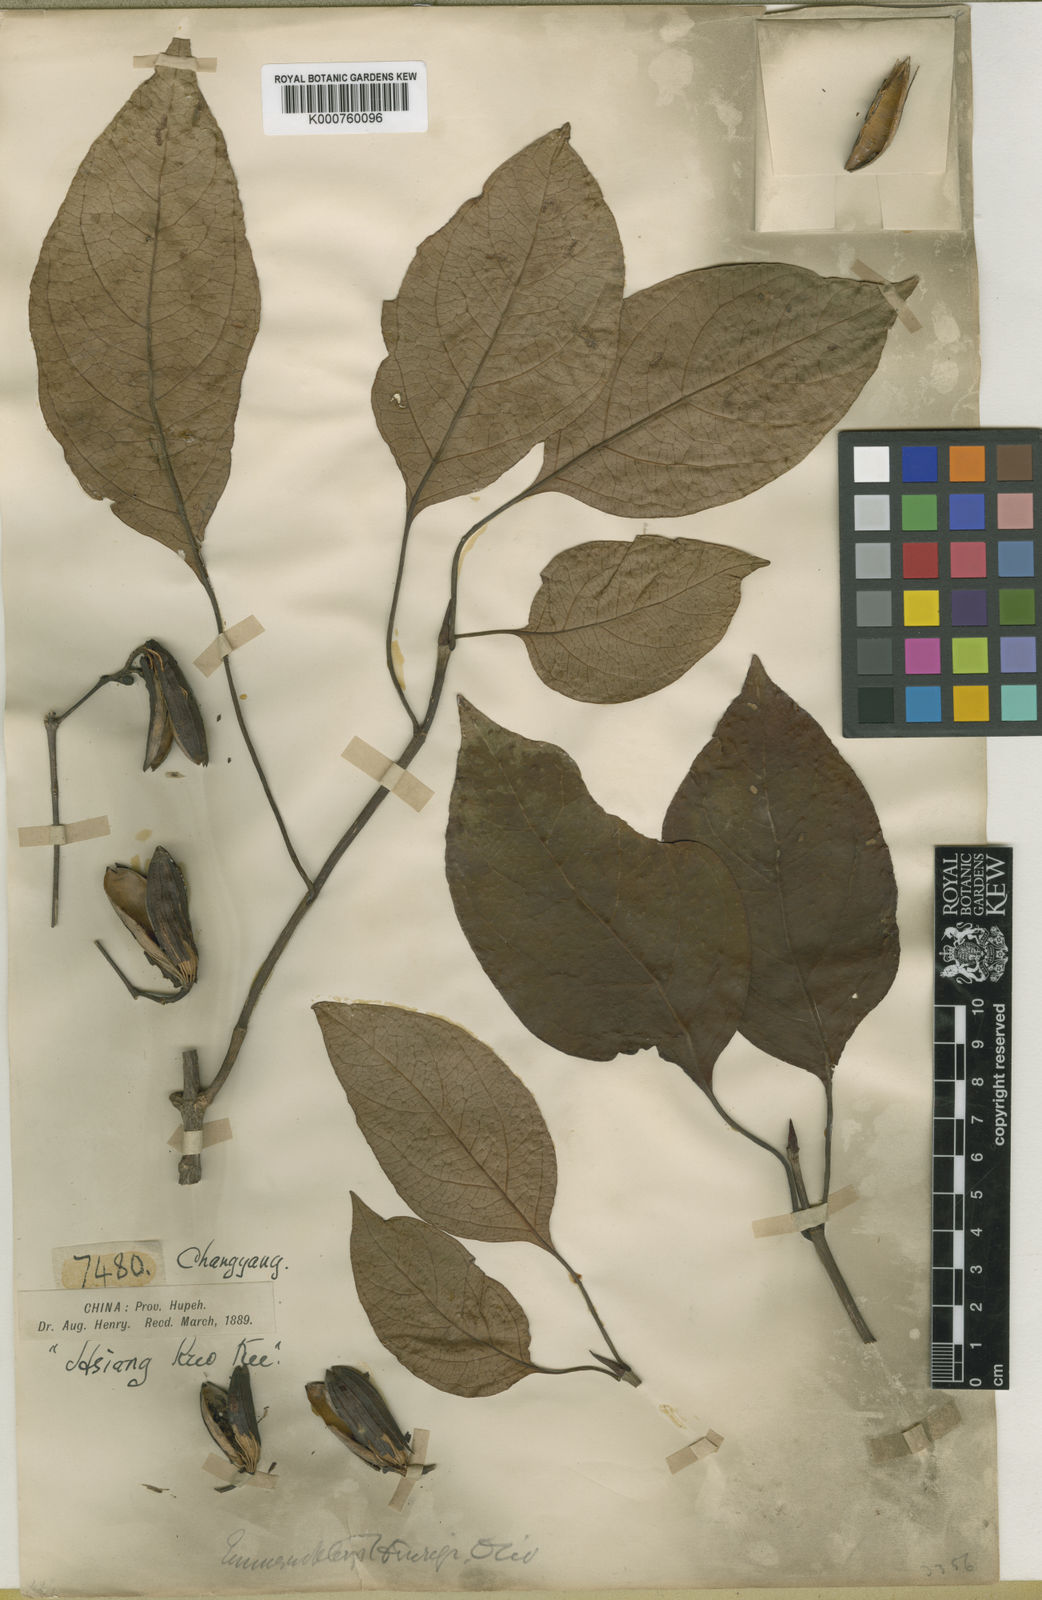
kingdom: Plantae
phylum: Tracheophyta
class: Magnoliopsida
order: Gentianales
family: Rubiaceae
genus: Emmenopterys
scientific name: Emmenopterys henryi
